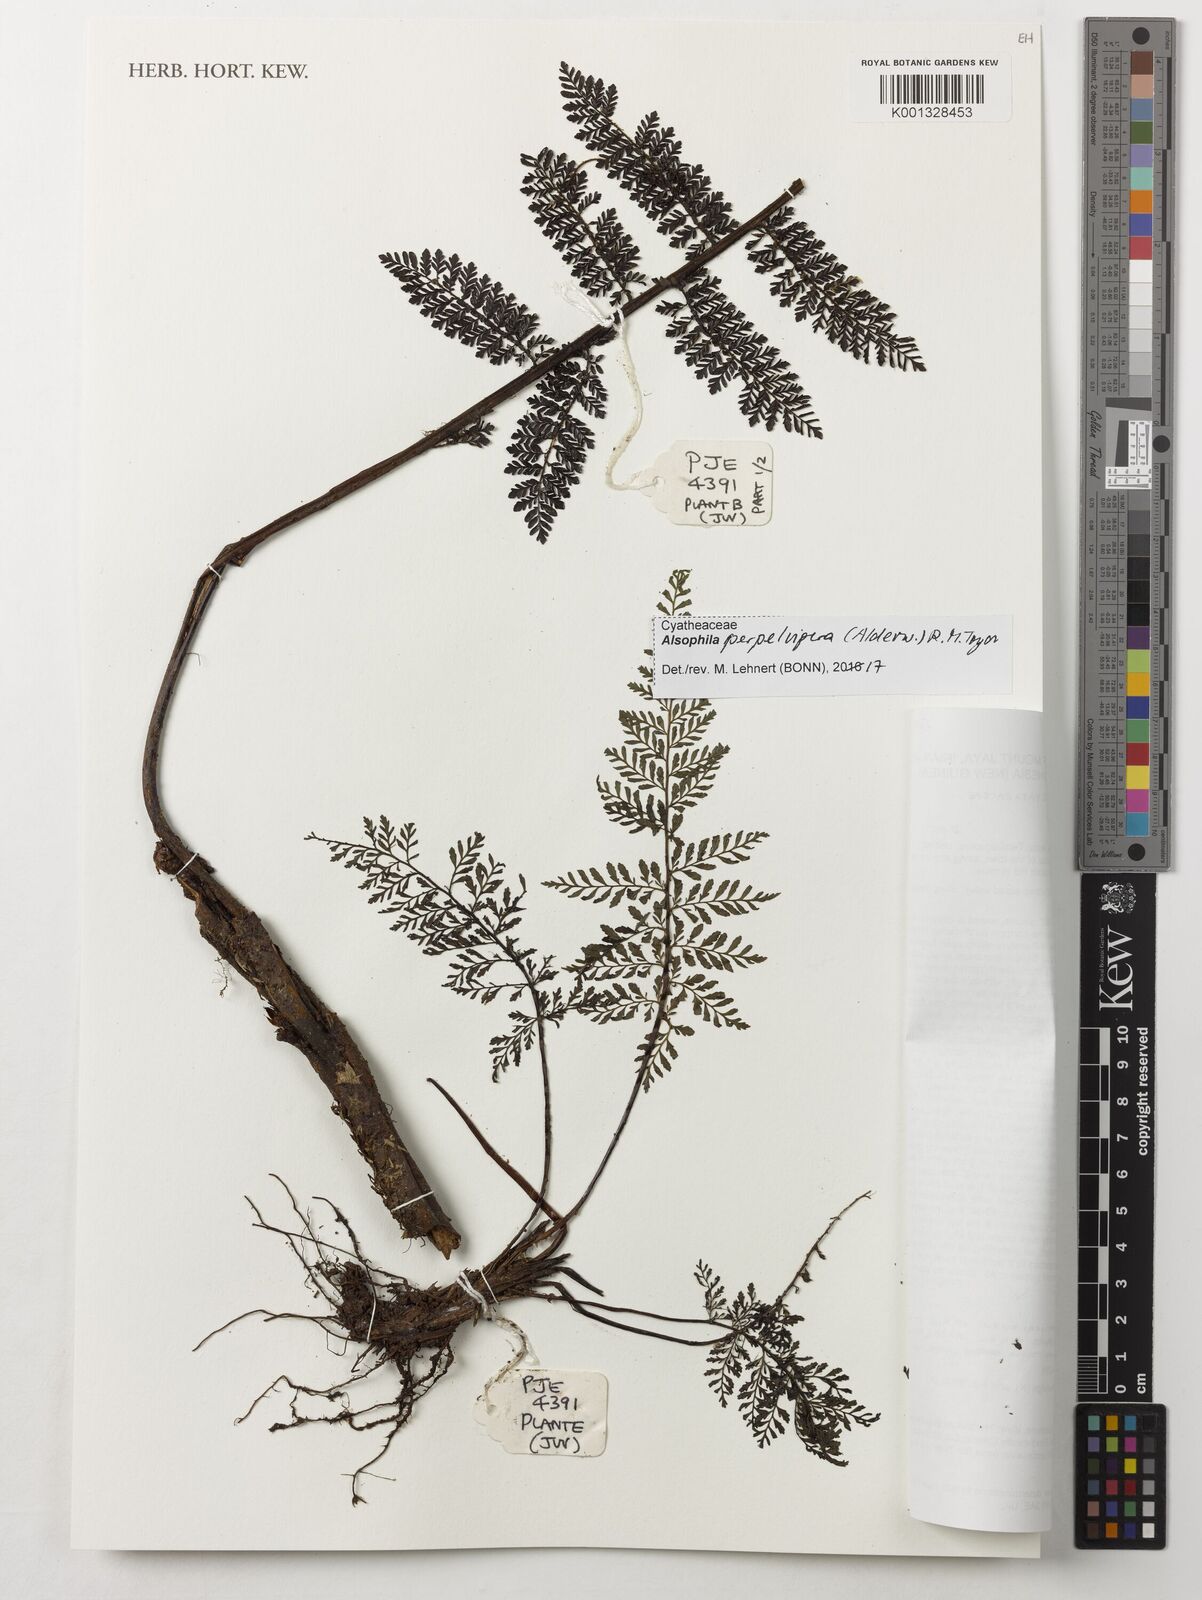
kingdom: Plantae
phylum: Tracheophyta
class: Polypodiopsida
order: Cyatheales
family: Cyatheaceae
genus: Alsophila
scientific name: Alsophila perpelvigera
